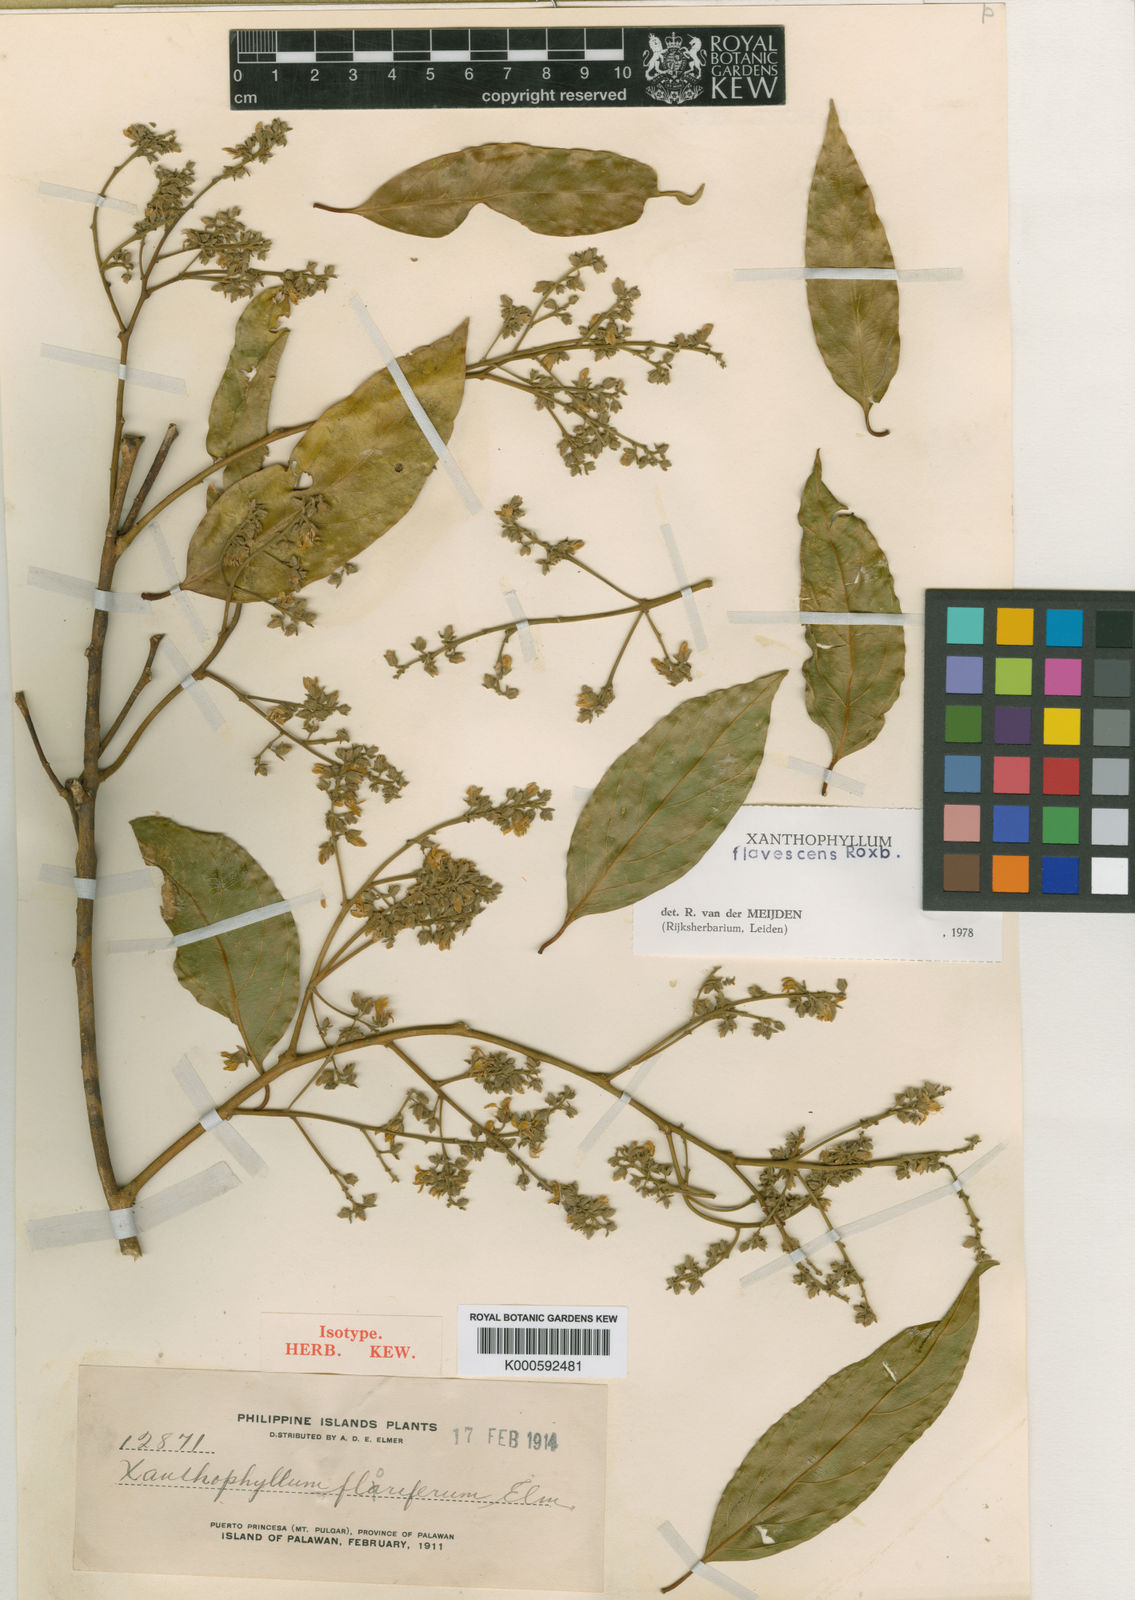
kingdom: Plantae
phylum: Tracheophyta
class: Magnoliopsida
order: Fabales
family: Polygalaceae
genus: Xanthophyllum
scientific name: Xanthophyllum flavescens
